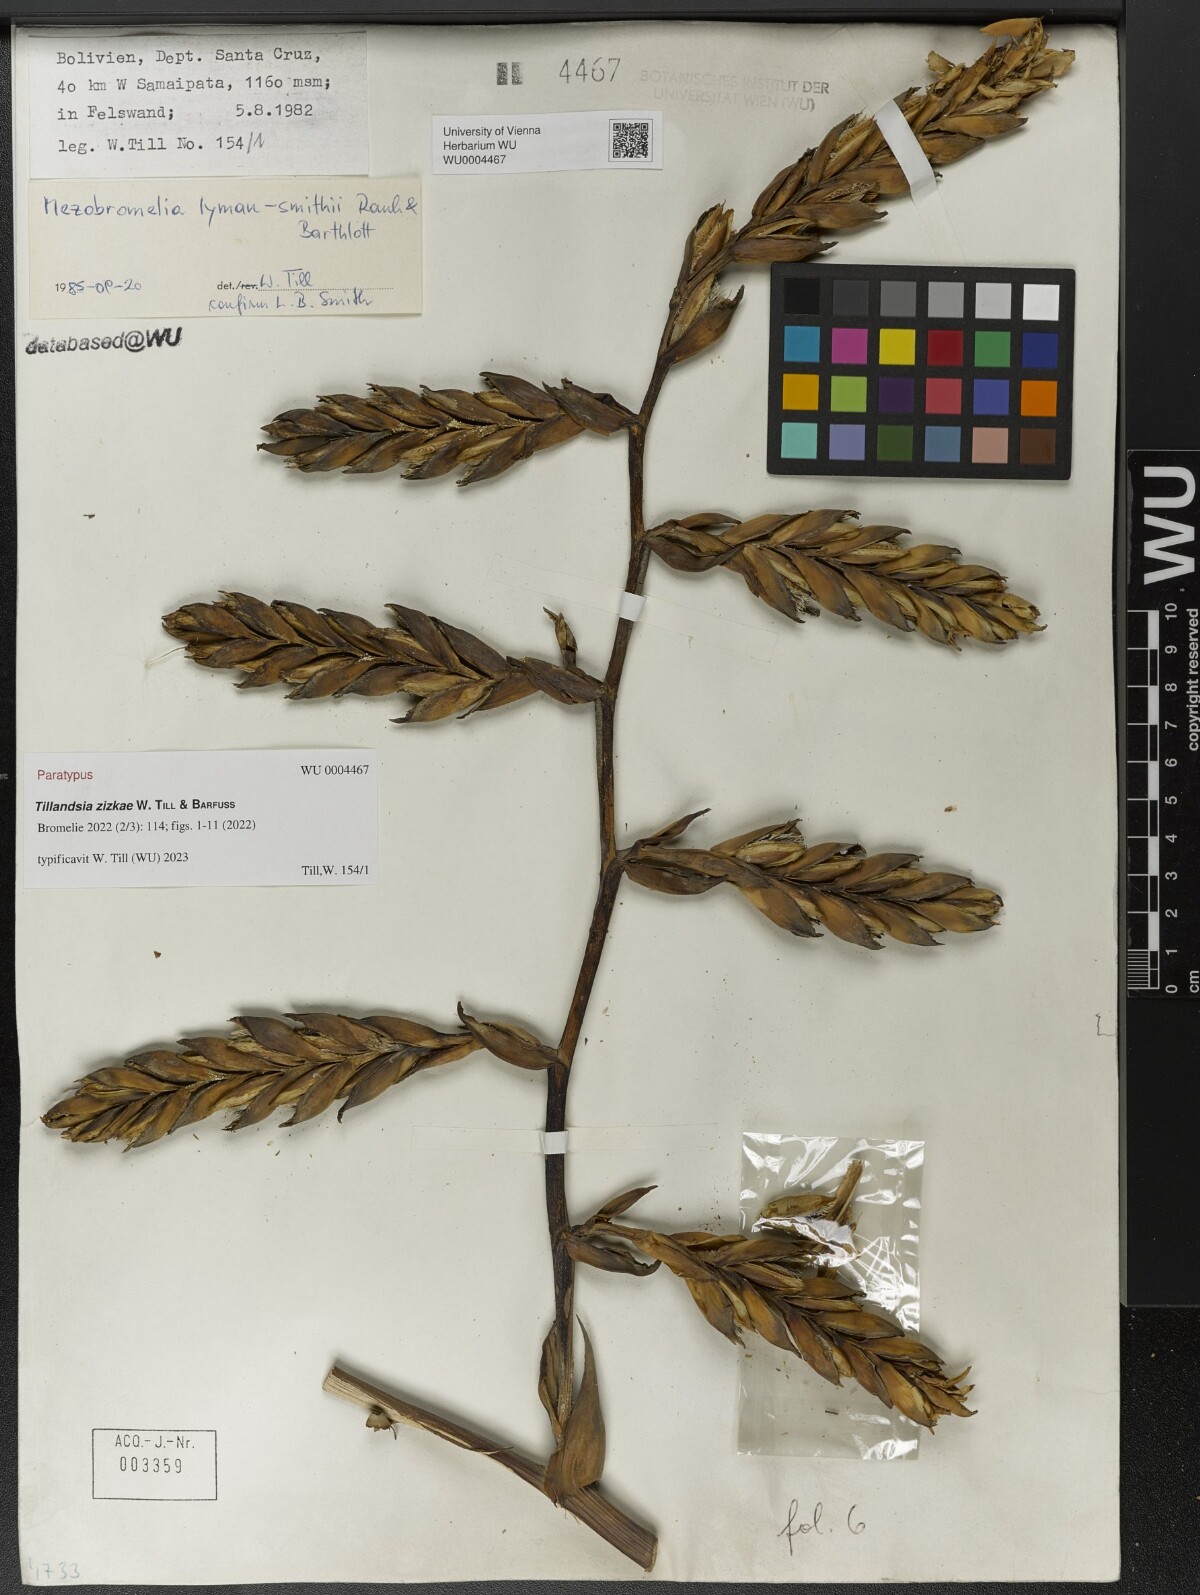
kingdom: Plantae
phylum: Tracheophyta
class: Liliopsida
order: Poales
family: Bromeliaceae
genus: Tillandsia
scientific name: Tillandsia
